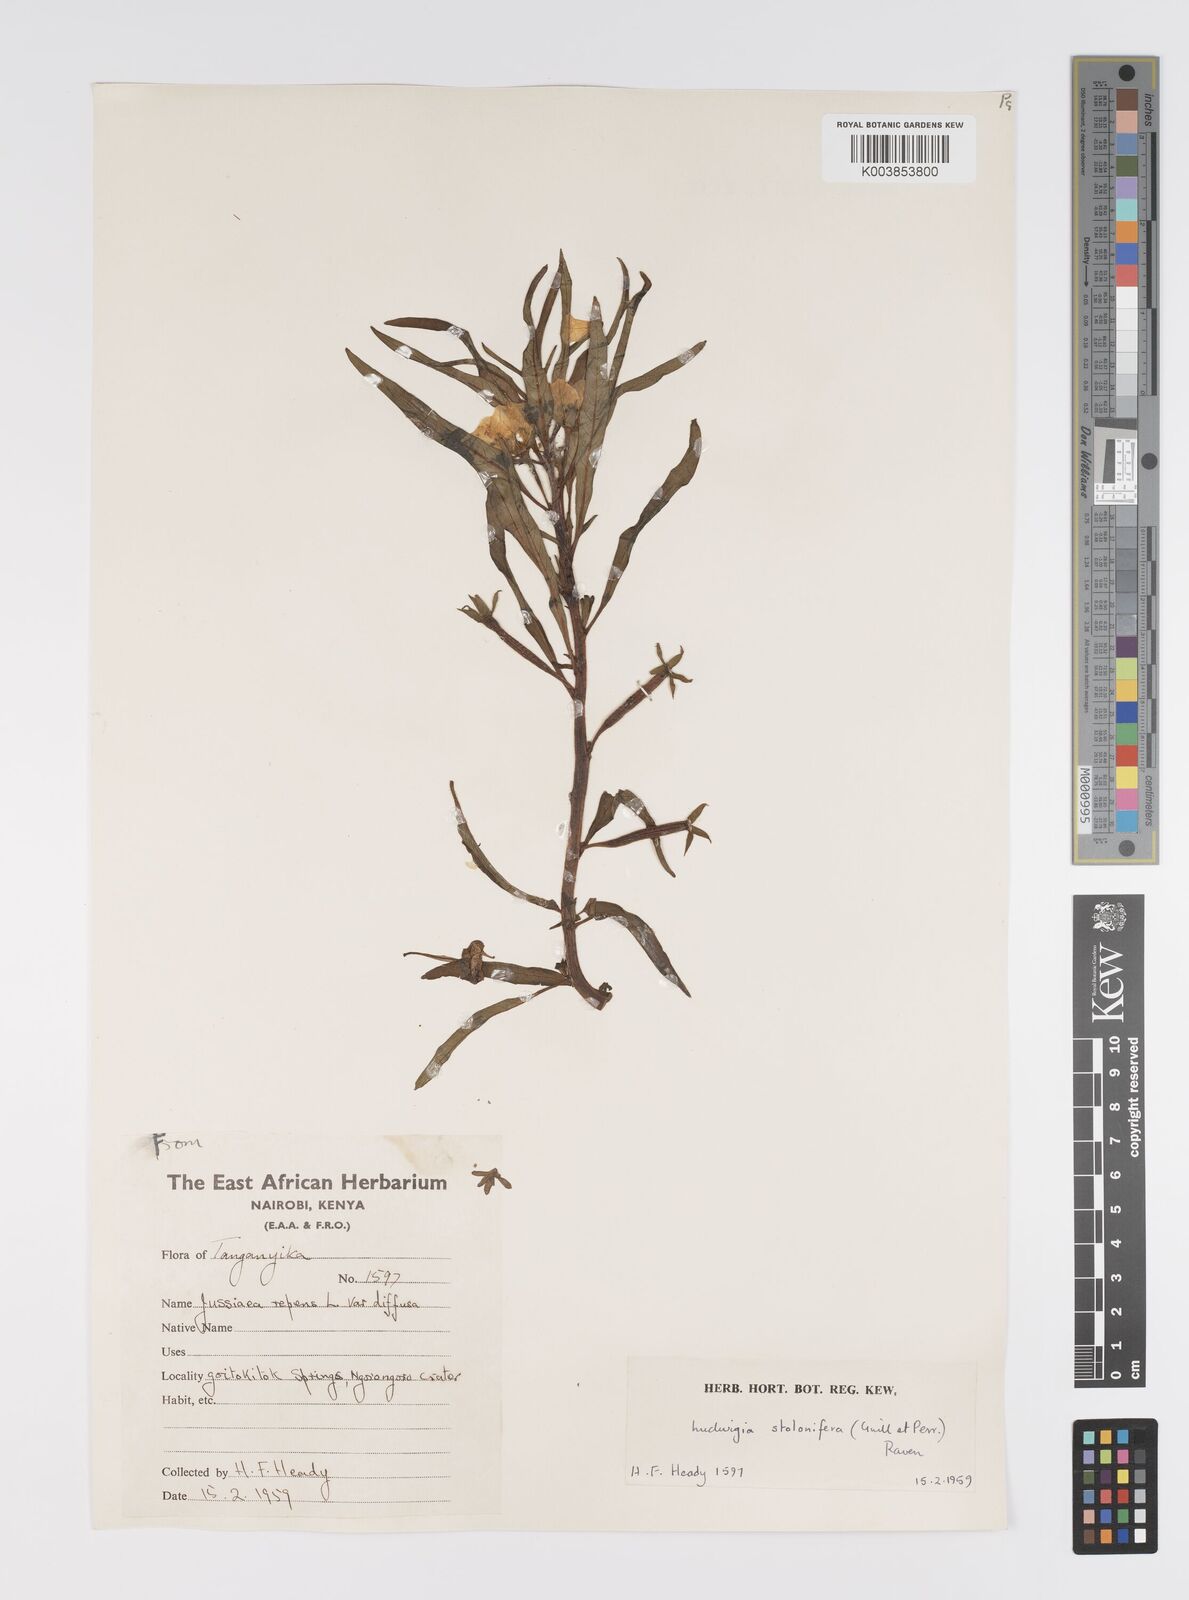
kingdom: Plantae
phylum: Tracheophyta
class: Magnoliopsida
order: Myrtales
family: Onagraceae
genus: Ludwigia
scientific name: Ludwigia adscendens
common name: Creeping water primrose
